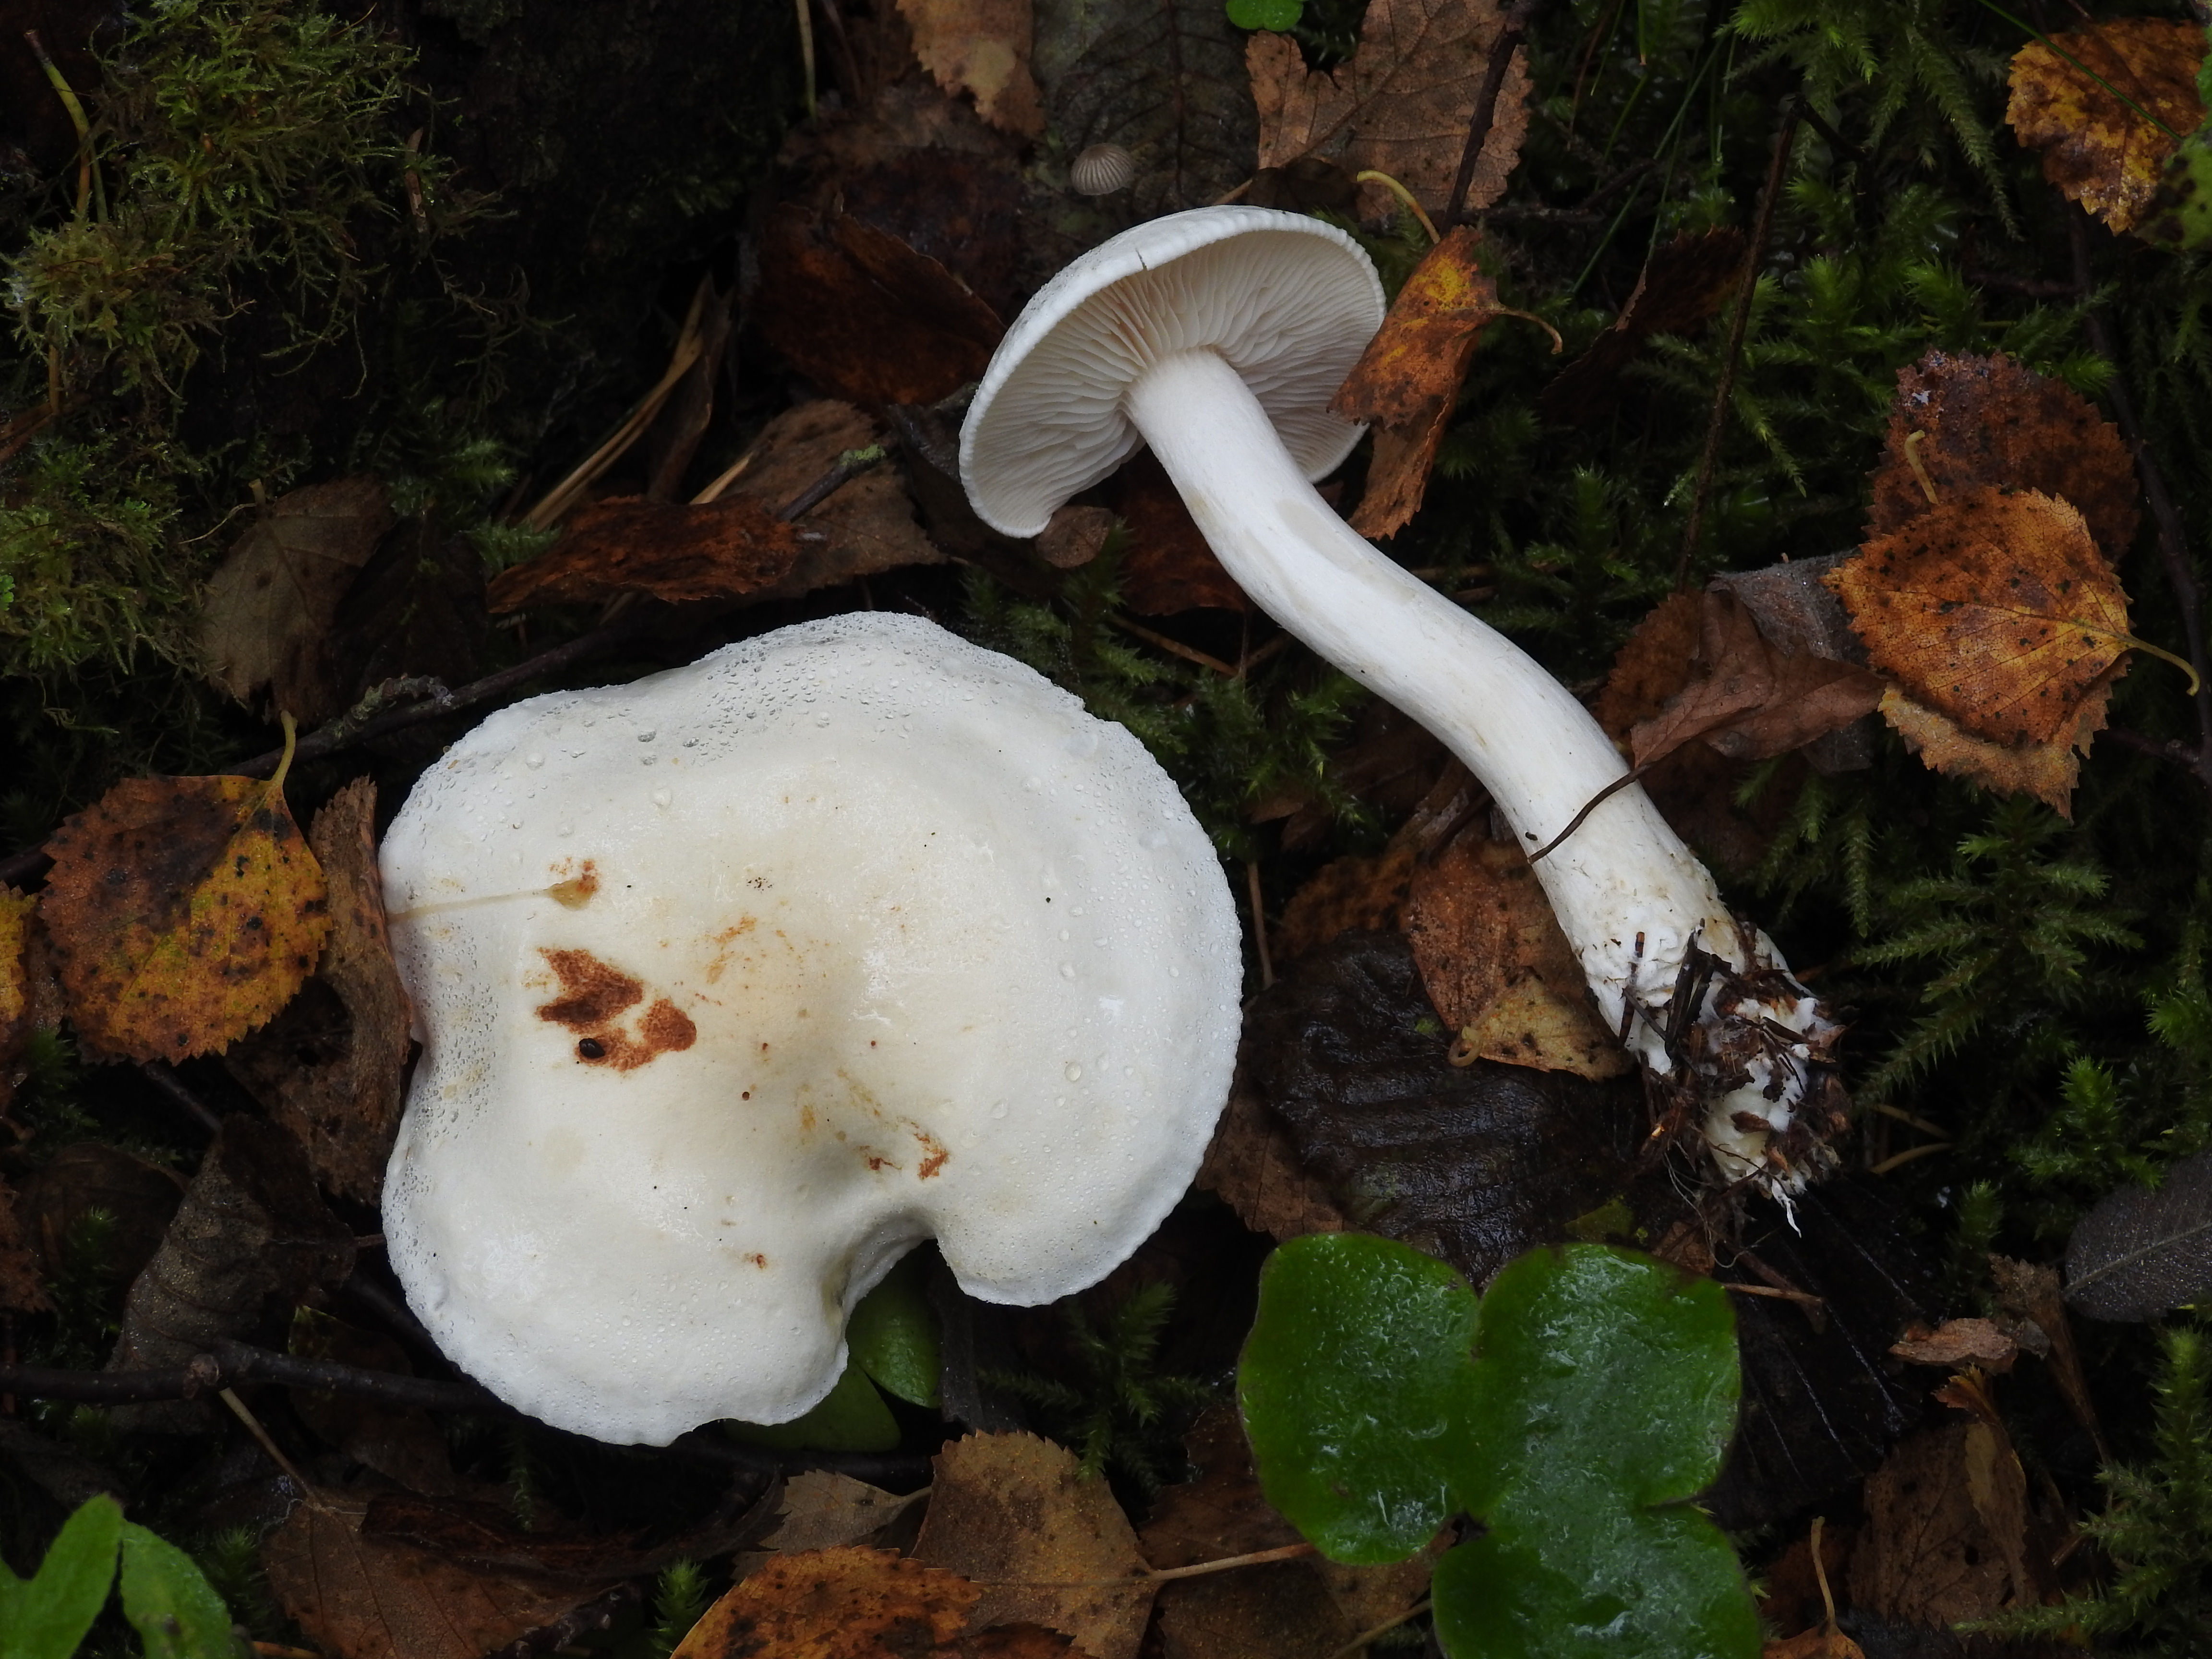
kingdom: Fungi
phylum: Basidiomycota
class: Agaricomycetes
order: Agaricales
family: Tricholomataceae
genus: Tricholoma
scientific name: Tricholoma stiparophyllum
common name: Chemical knight
